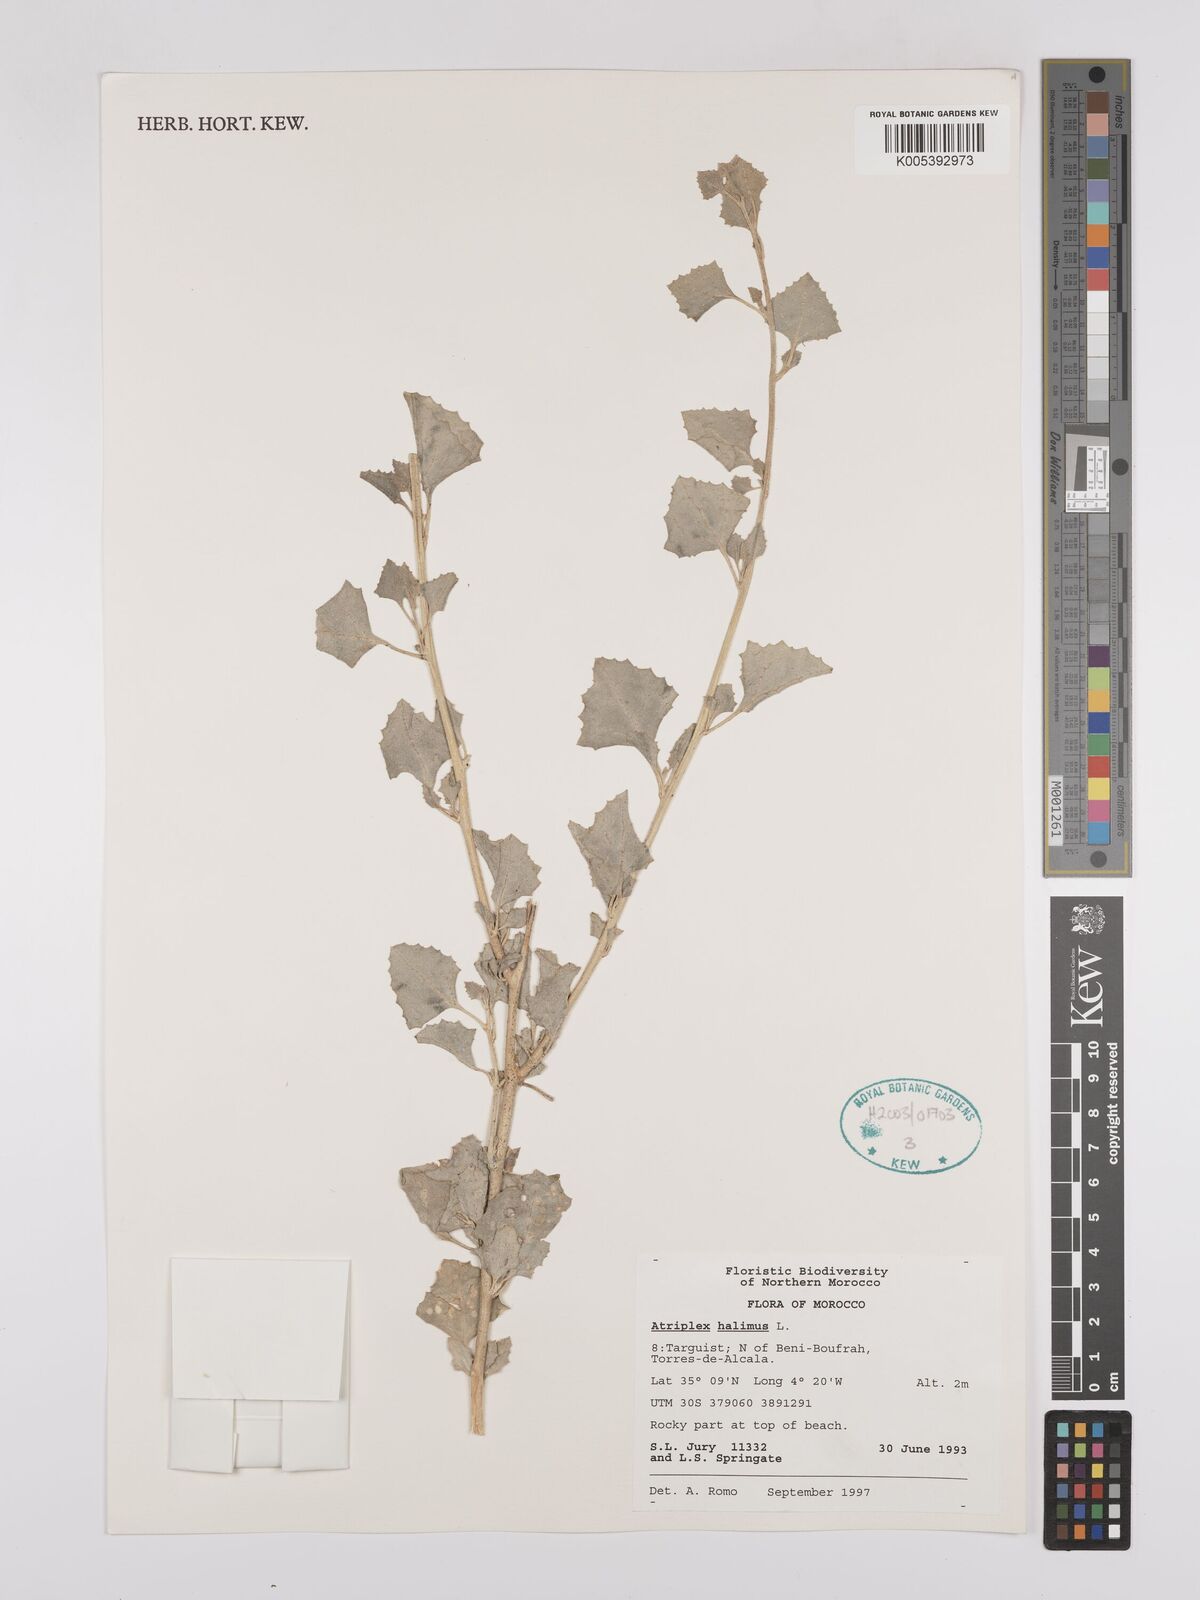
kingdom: Plantae
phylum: Tracheophyta
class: Magnoliopsida
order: Caryophyllales
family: Amaranthaceae
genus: Atriplex
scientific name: Atriplex
